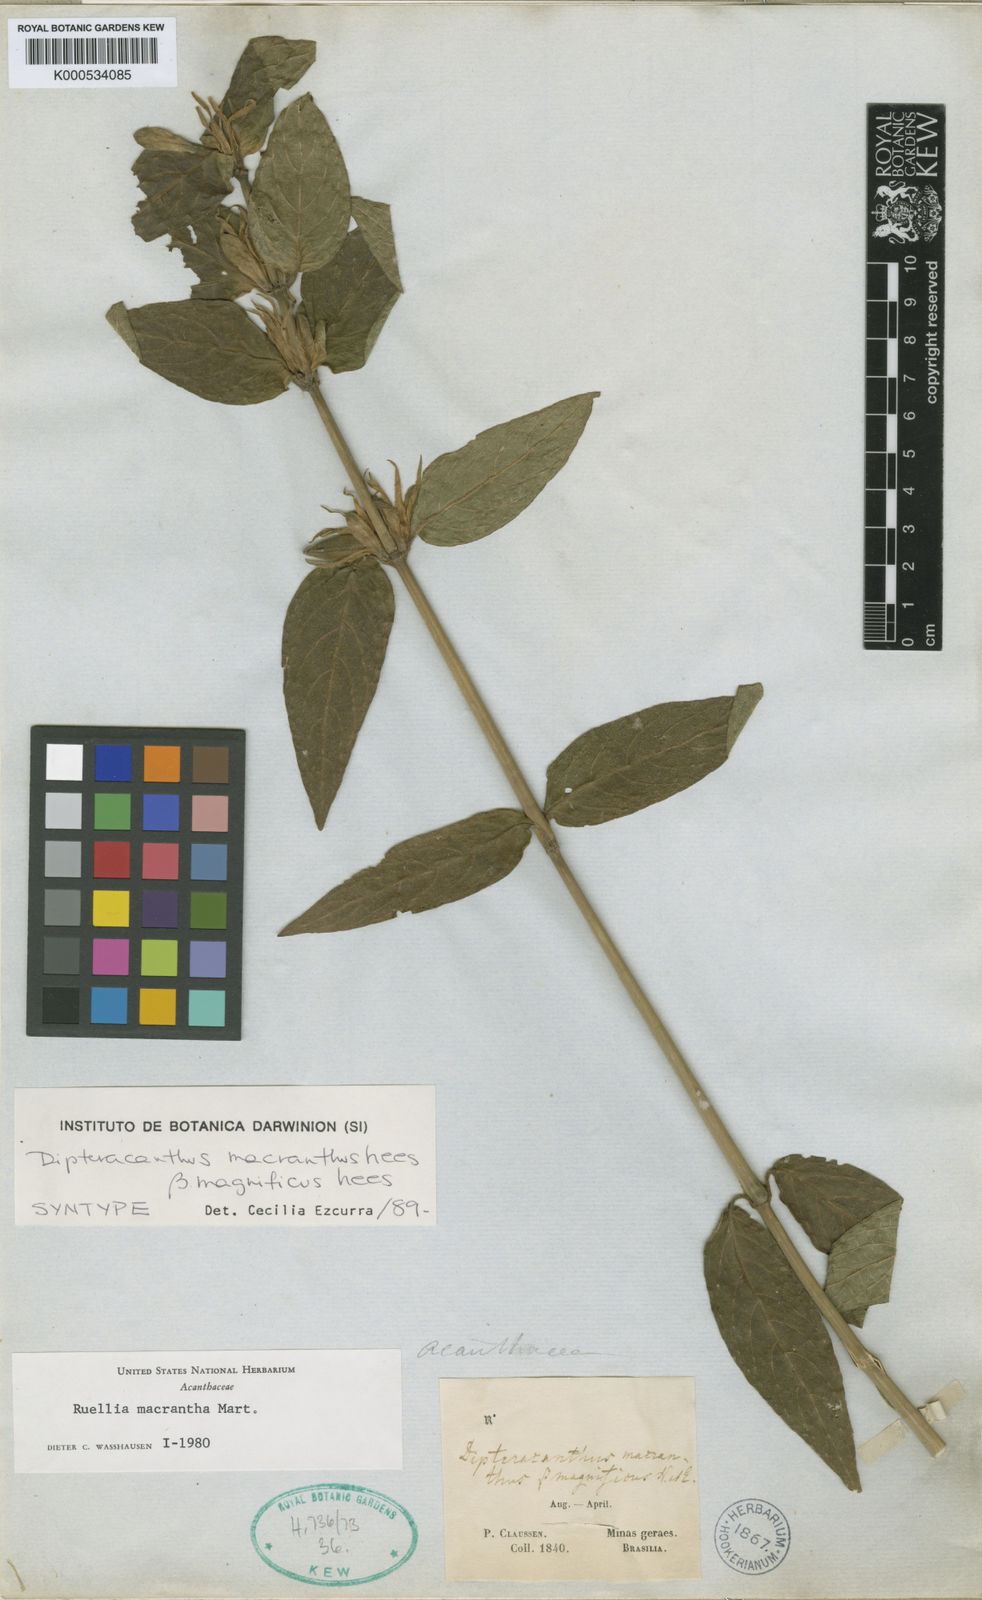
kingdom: Plantae
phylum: Tracheophyta
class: Magnoliopsida
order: Lamiales
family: Acanthaceae
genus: Ruellia
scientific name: Ruellia
